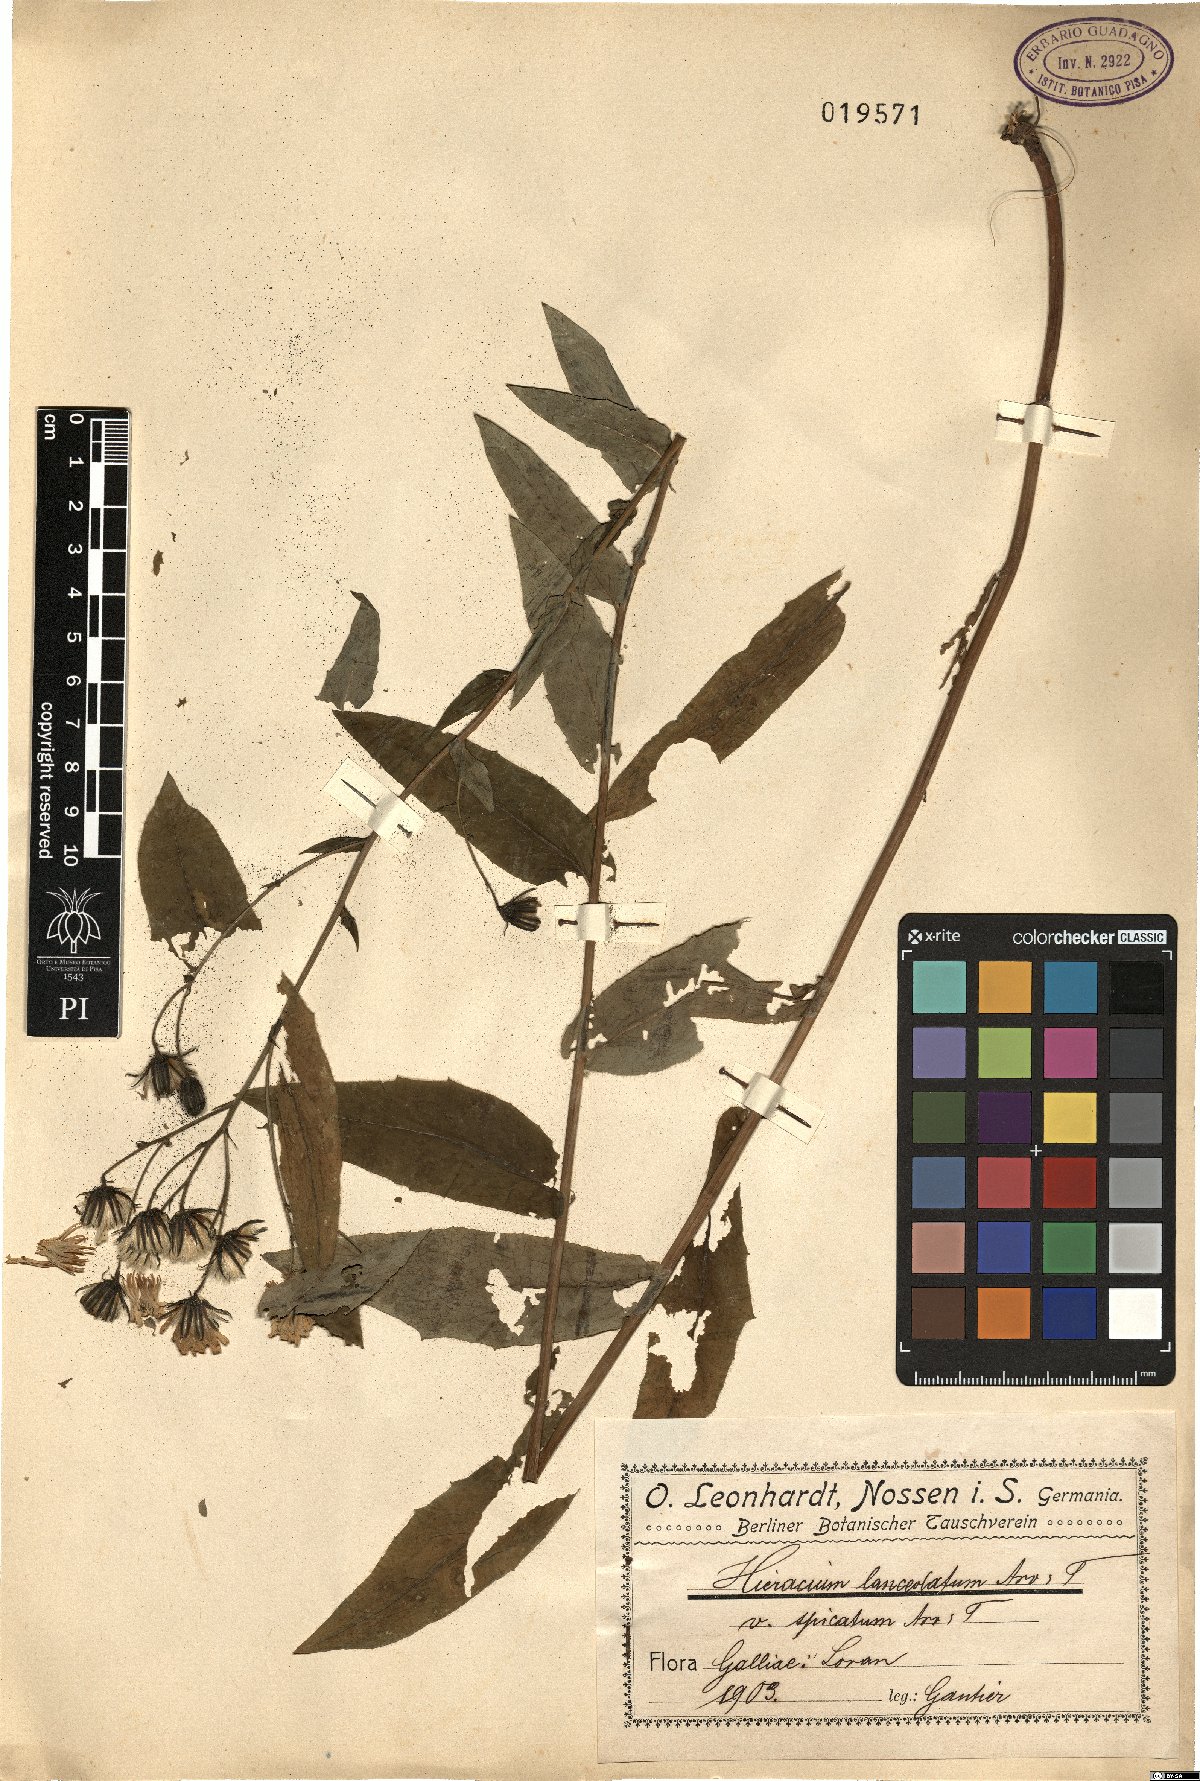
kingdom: Plantae
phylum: Tracheophyta
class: Magnoliopsida
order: Asterales
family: Asteraceae
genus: Hieracium
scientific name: Hieracium prenanthoides
